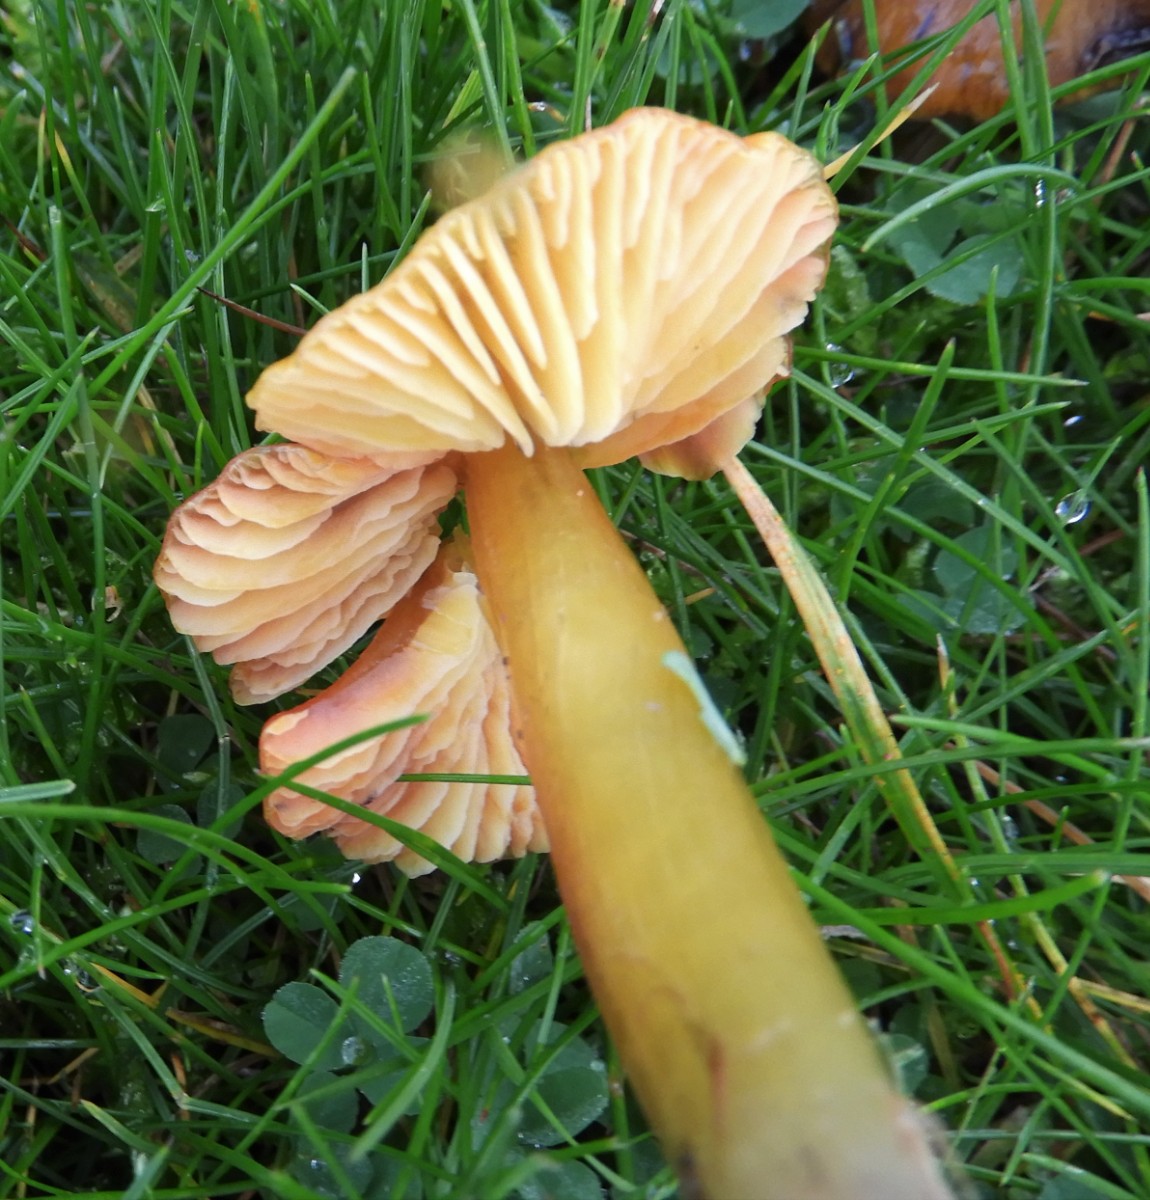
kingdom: Fungi
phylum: Basidiomycota
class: Agaricomycetes
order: Agaricales
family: Hygrophoraceae
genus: Hygrocybe
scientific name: Hygrocybe conica
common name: kegle-vokshat
